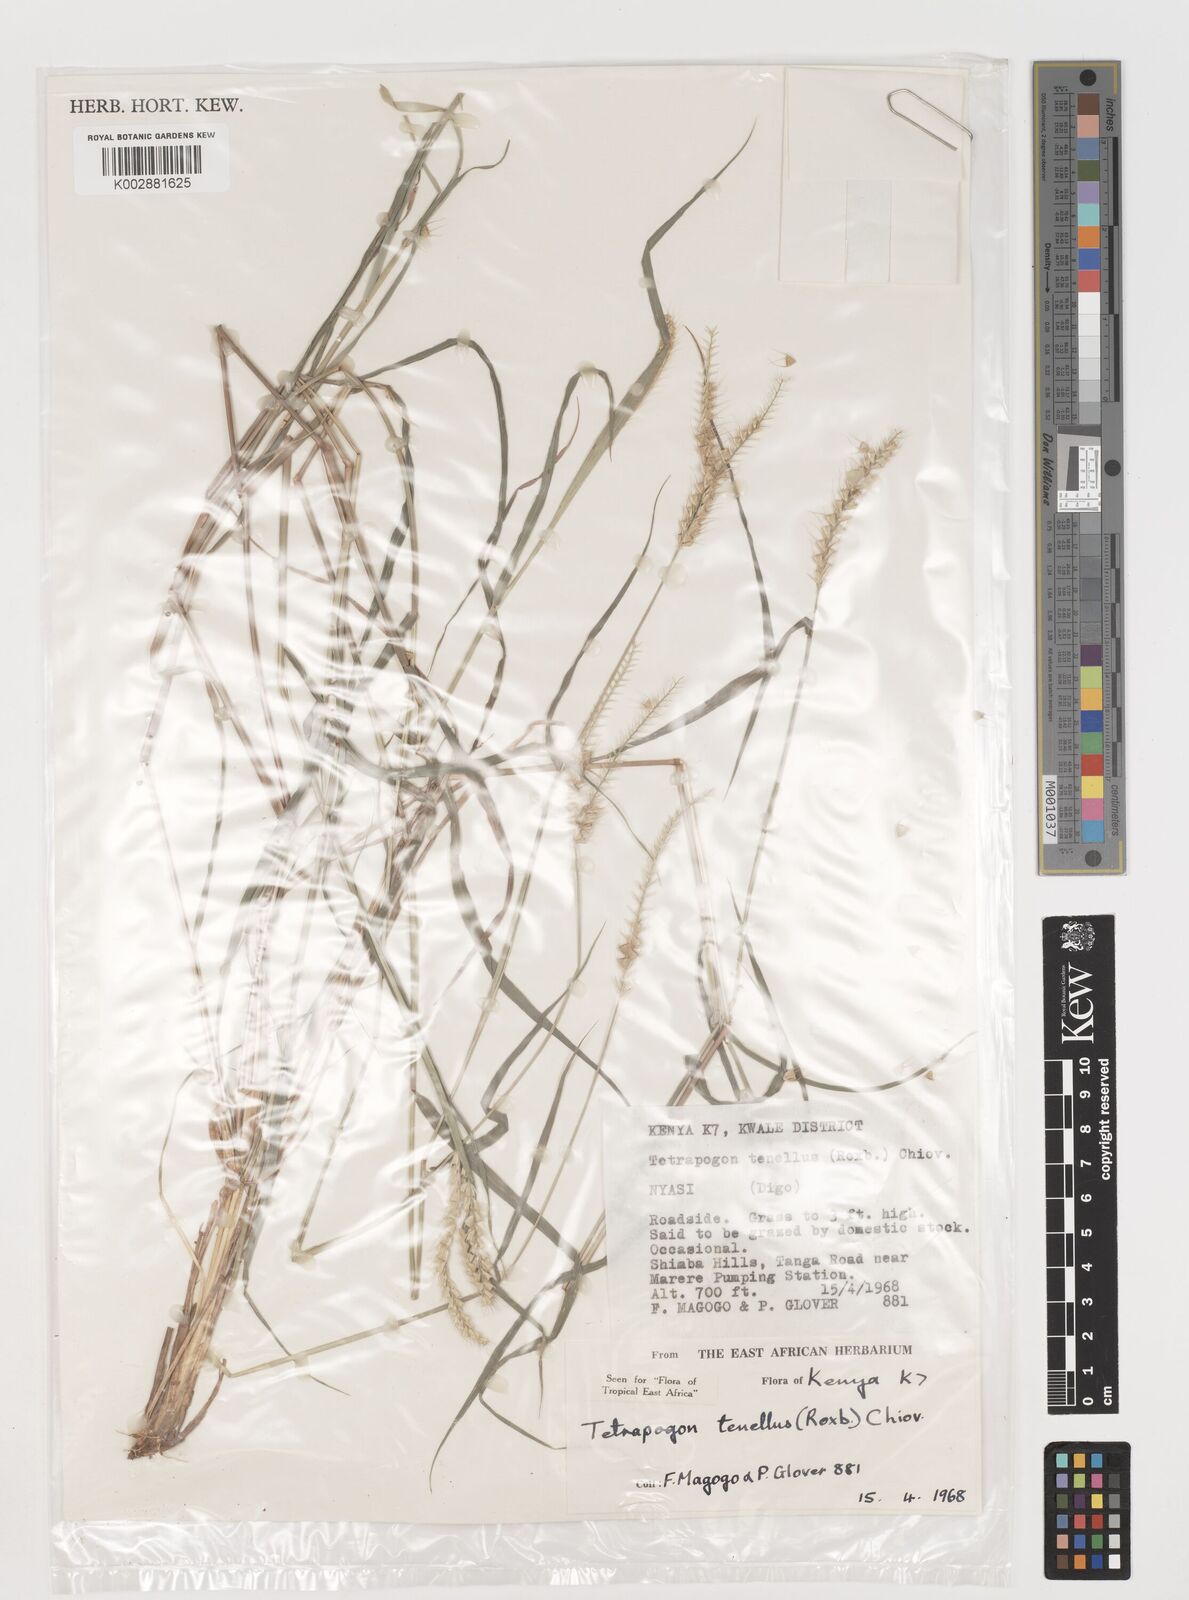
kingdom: Plantae
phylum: Tracheophyta
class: Liliopsida
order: Poales
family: Poaceae
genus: Tetrapogon
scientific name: Tetrapogon tenellus
